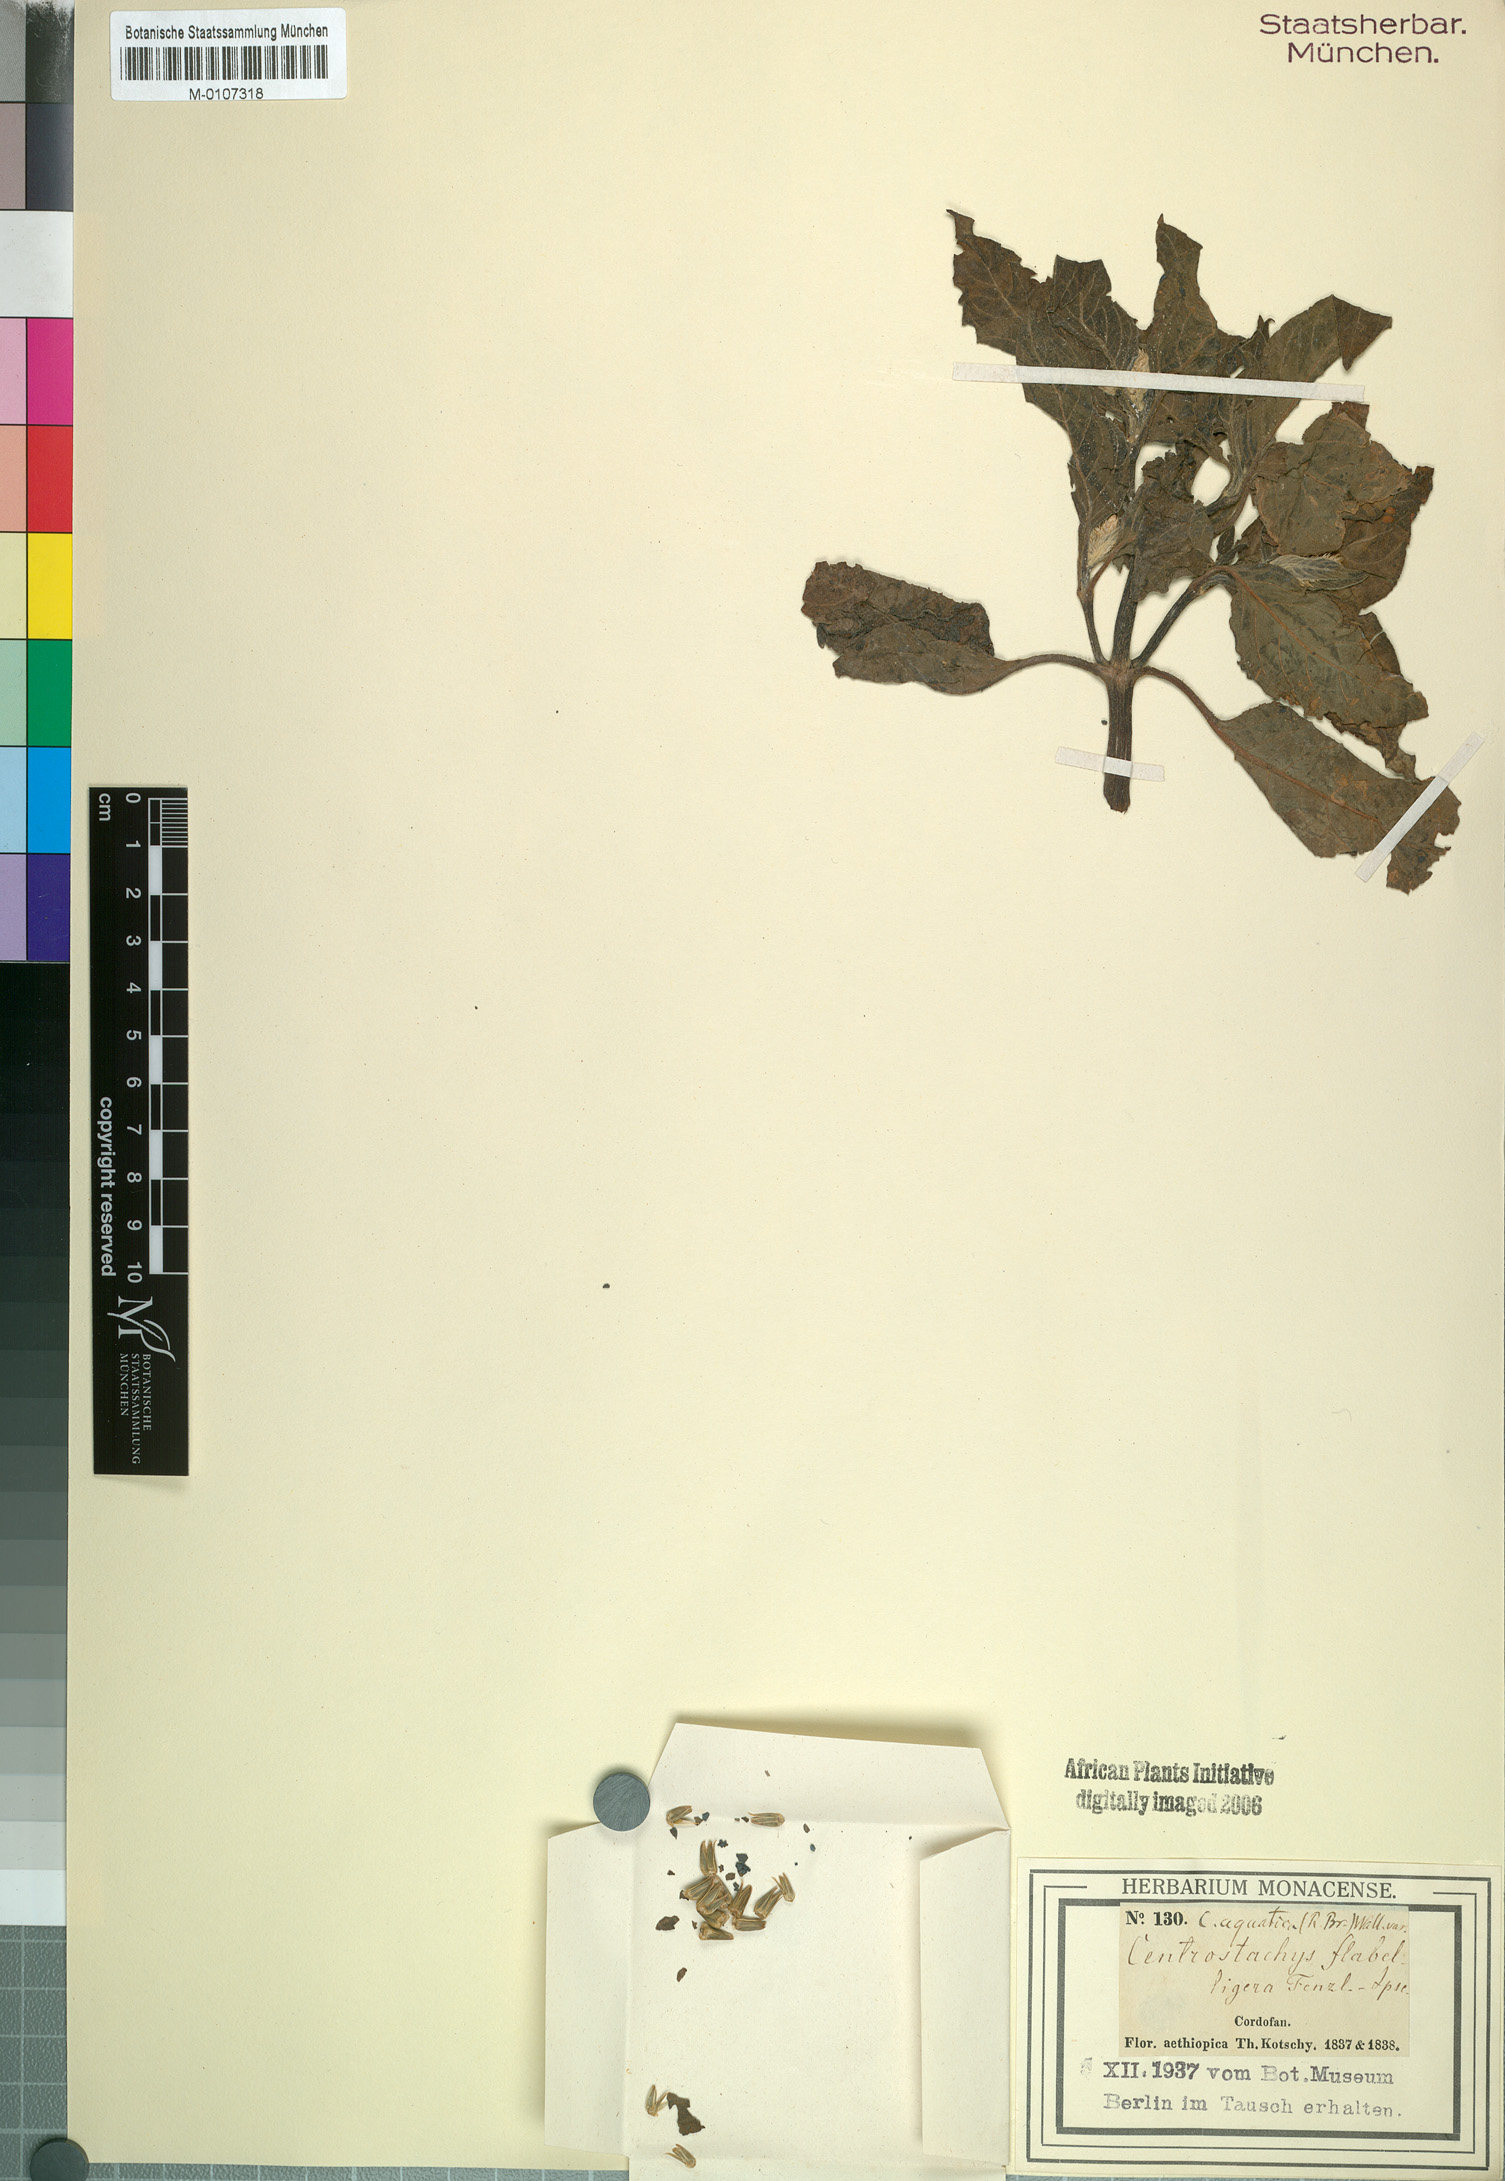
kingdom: Plantae
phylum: Tracheophyta
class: Magnoliopsida
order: Caryophyllales
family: Amaranthaceae
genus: Centrostachys
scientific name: Centrostachys aquatica
